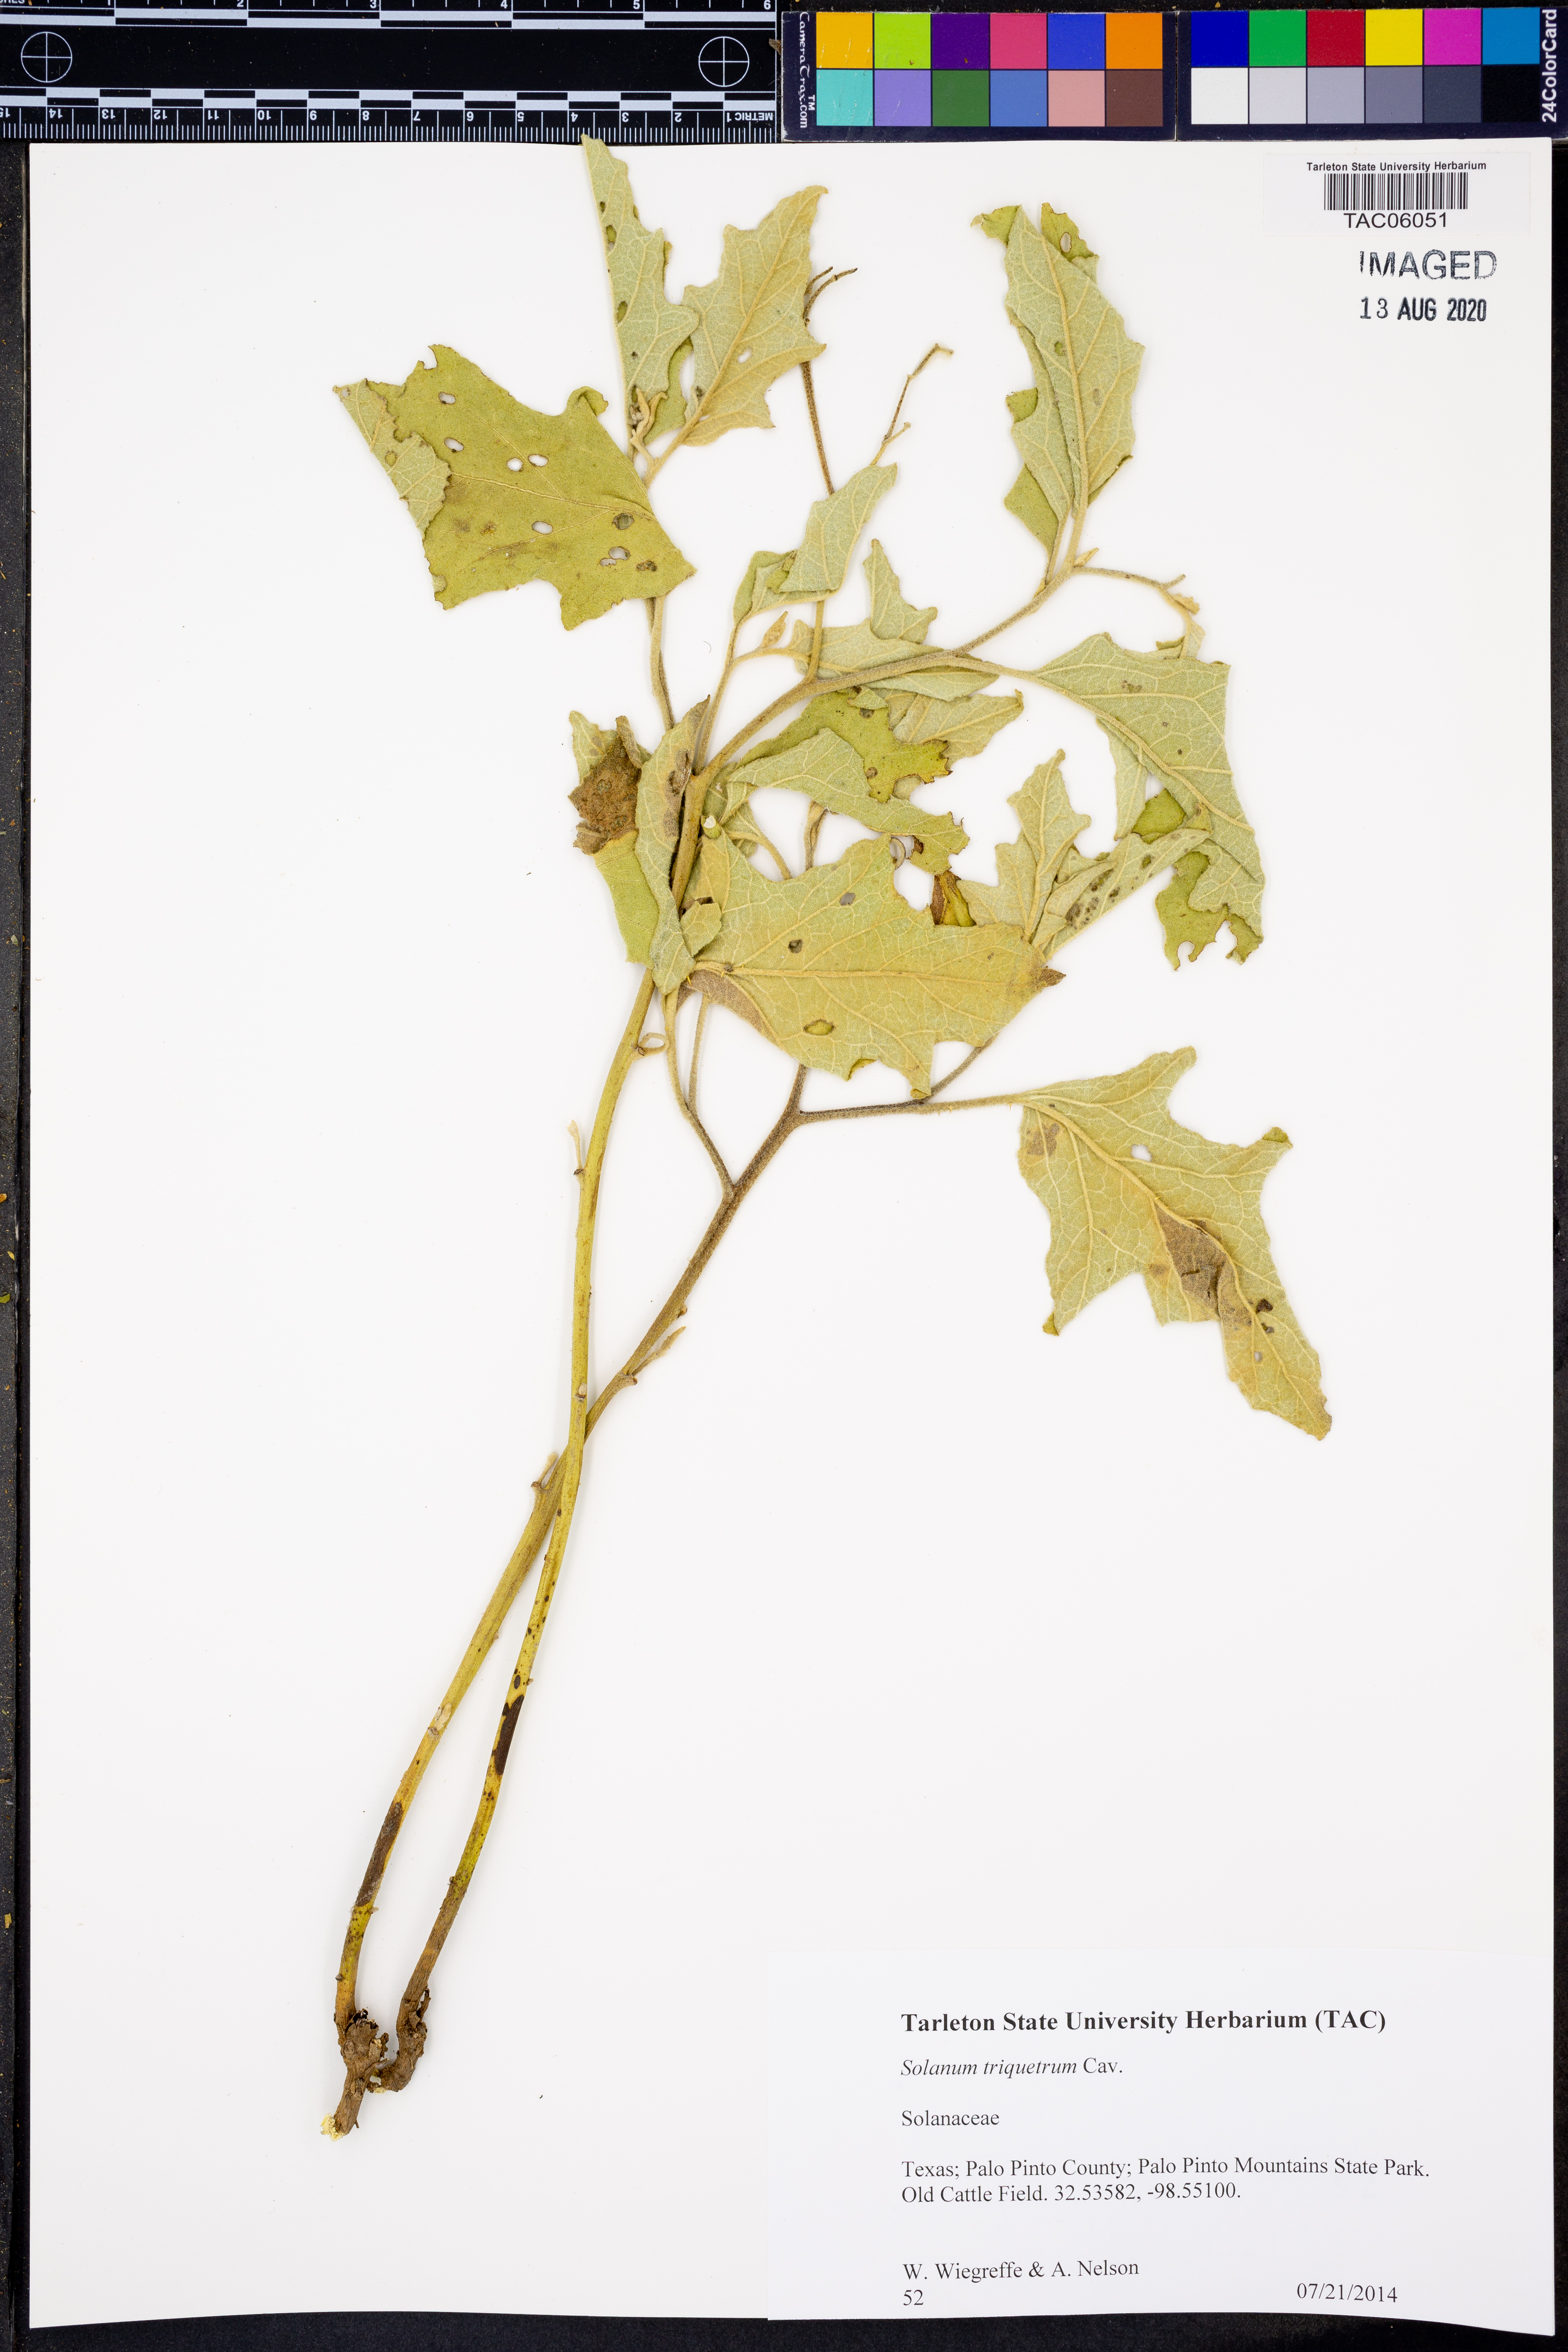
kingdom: Plantae
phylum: Tracheophyta
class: Magnoliopsida
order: Solanales
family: Solanaceae
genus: Solanum
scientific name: Solanum triquetrum
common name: Texas nightshade
